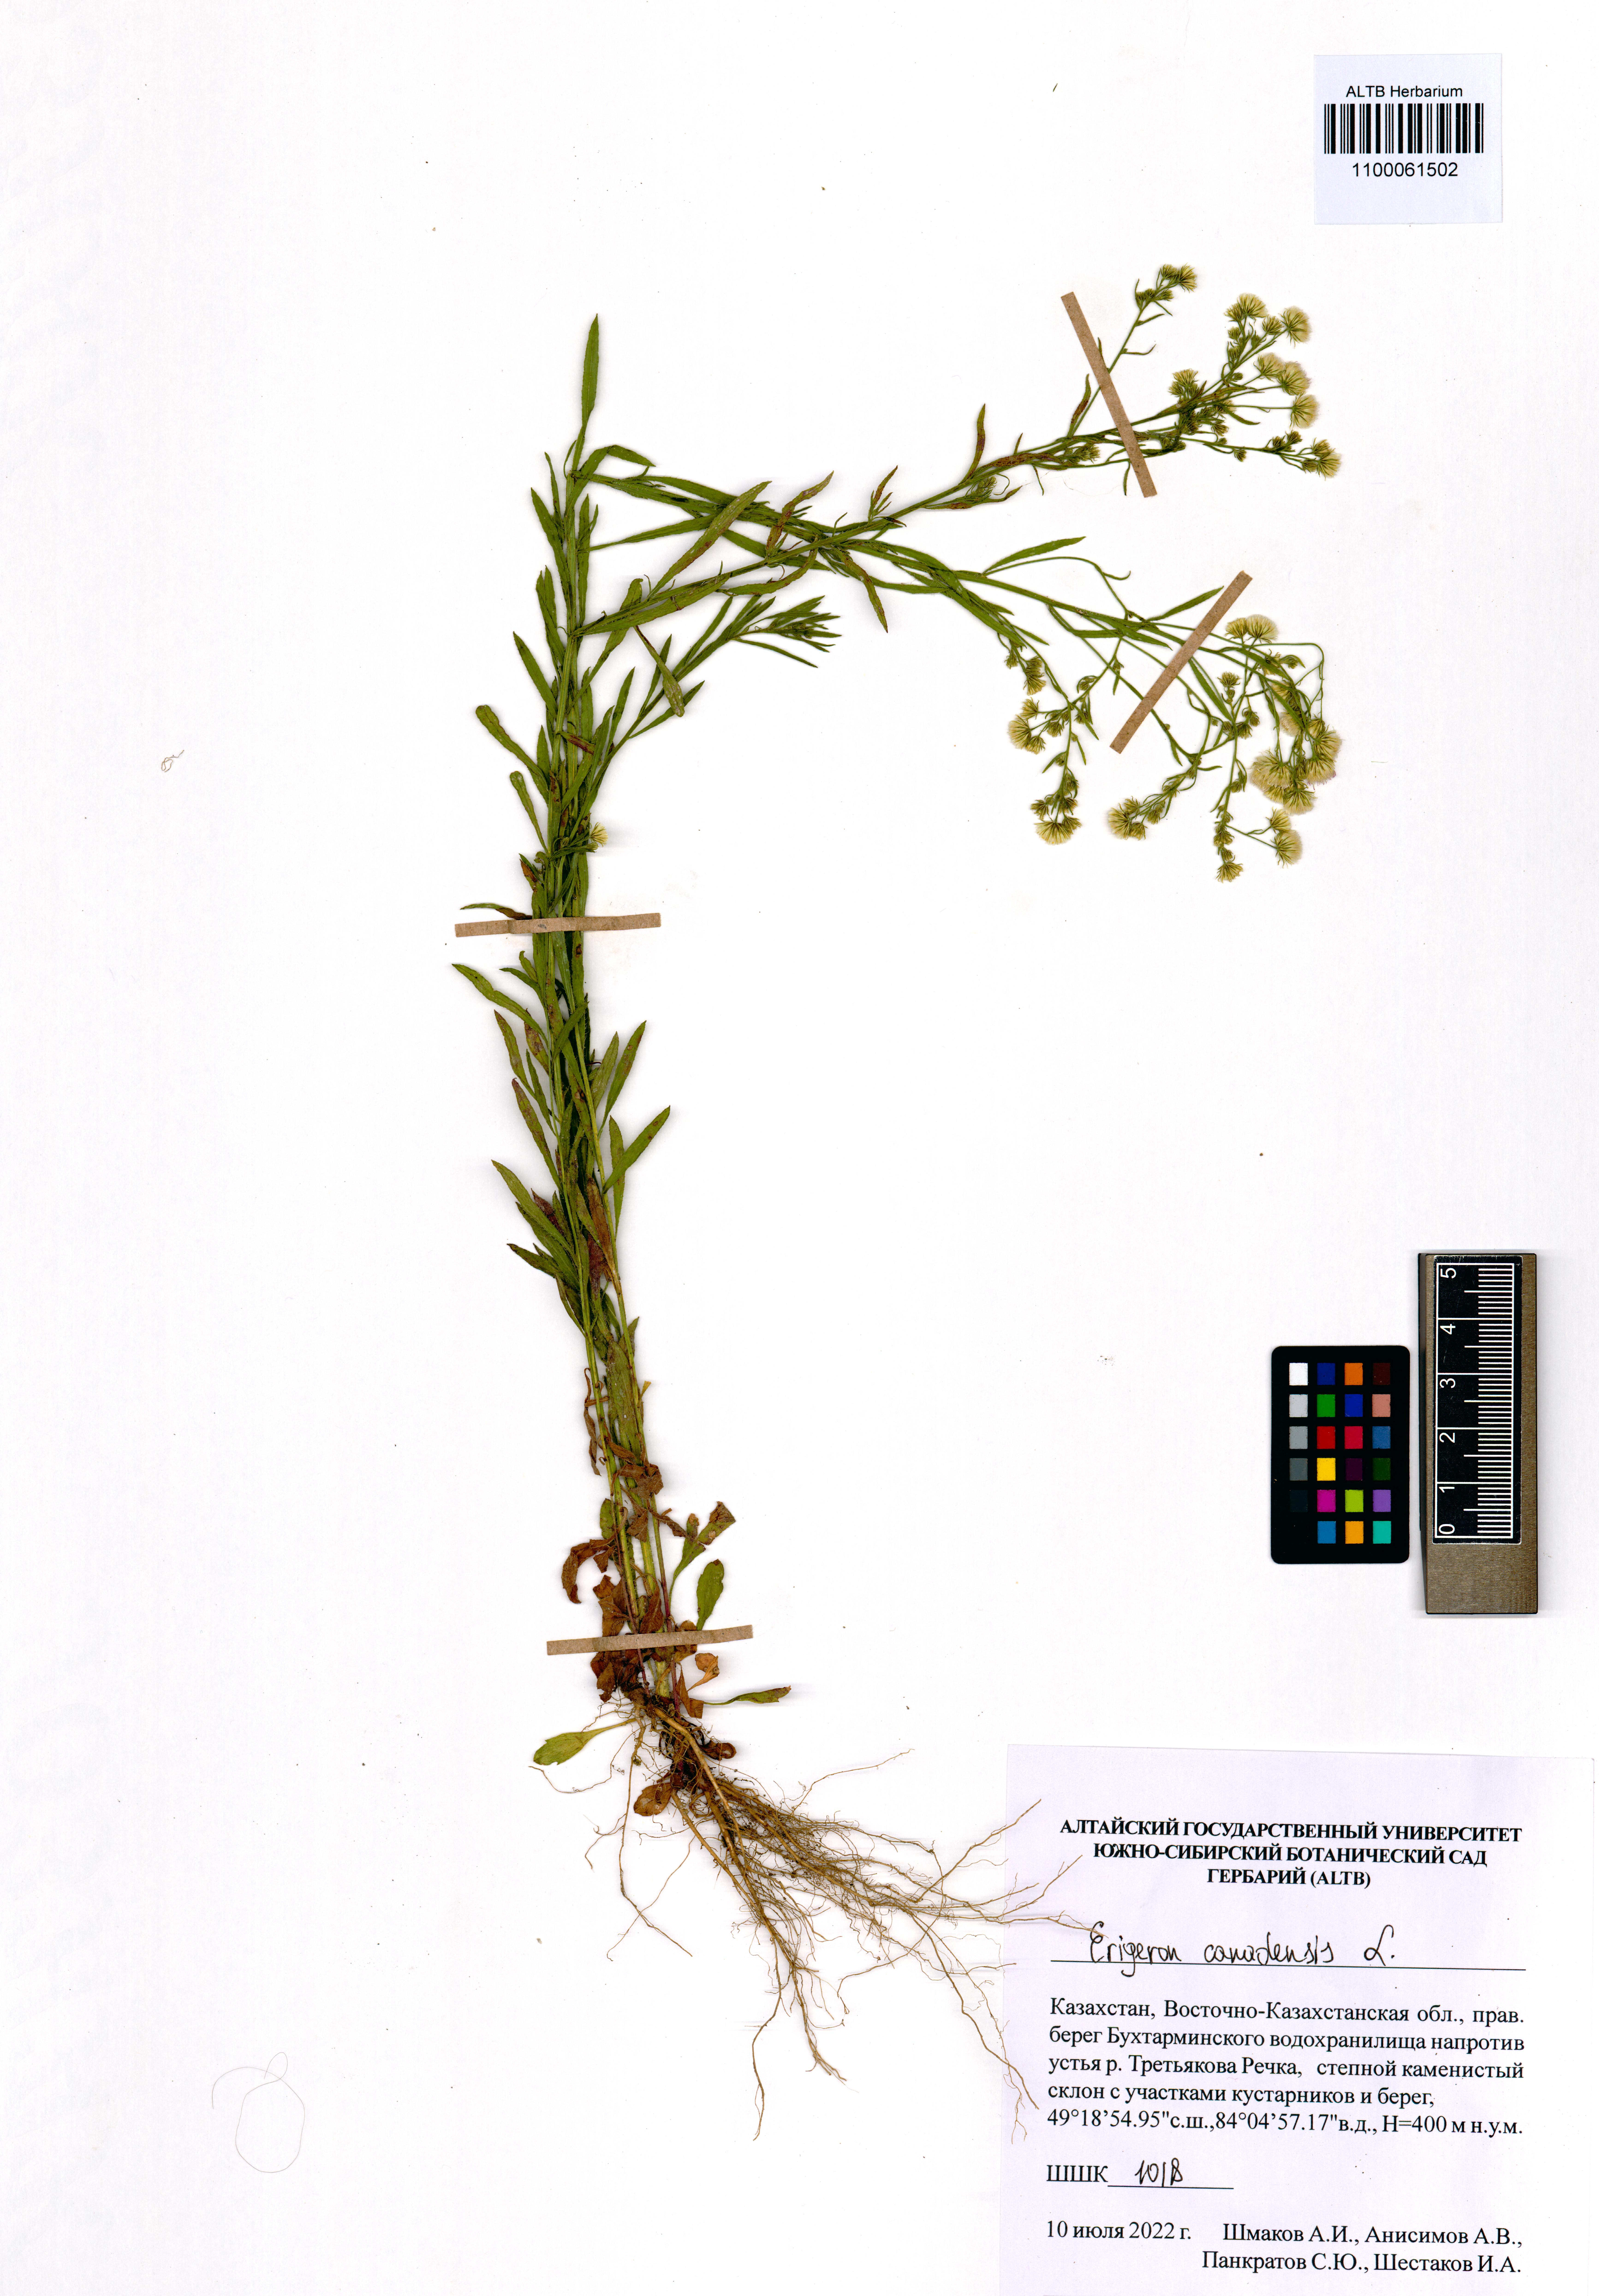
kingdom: Plantae
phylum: Tracheophyta
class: Magnoliopsida
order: Asterales
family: Asteraceae
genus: Erigeron
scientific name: Erigeron canadensis
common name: Canadian fleabane
